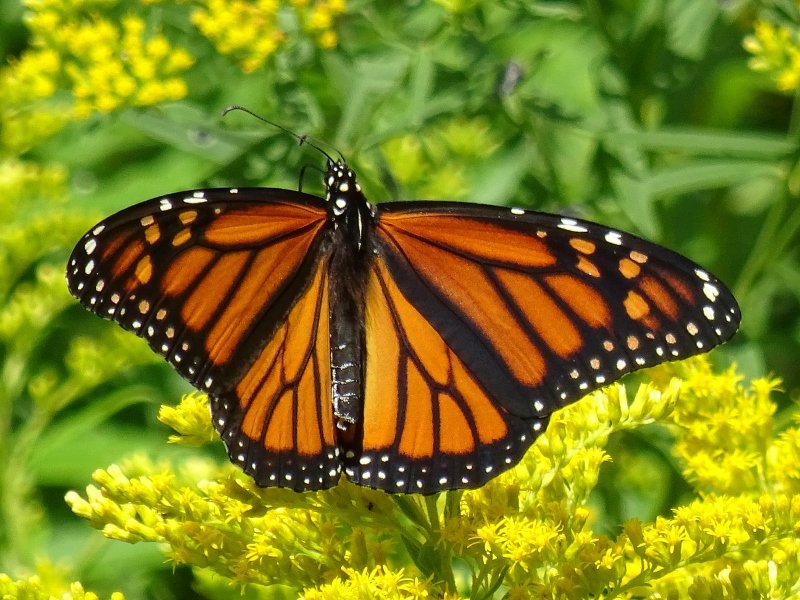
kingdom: Animalia
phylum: Arthropoda
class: Insecta
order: Lepidoptera
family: Nymphalidae
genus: Danaus
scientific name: Danaus plexippus
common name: Monarch
